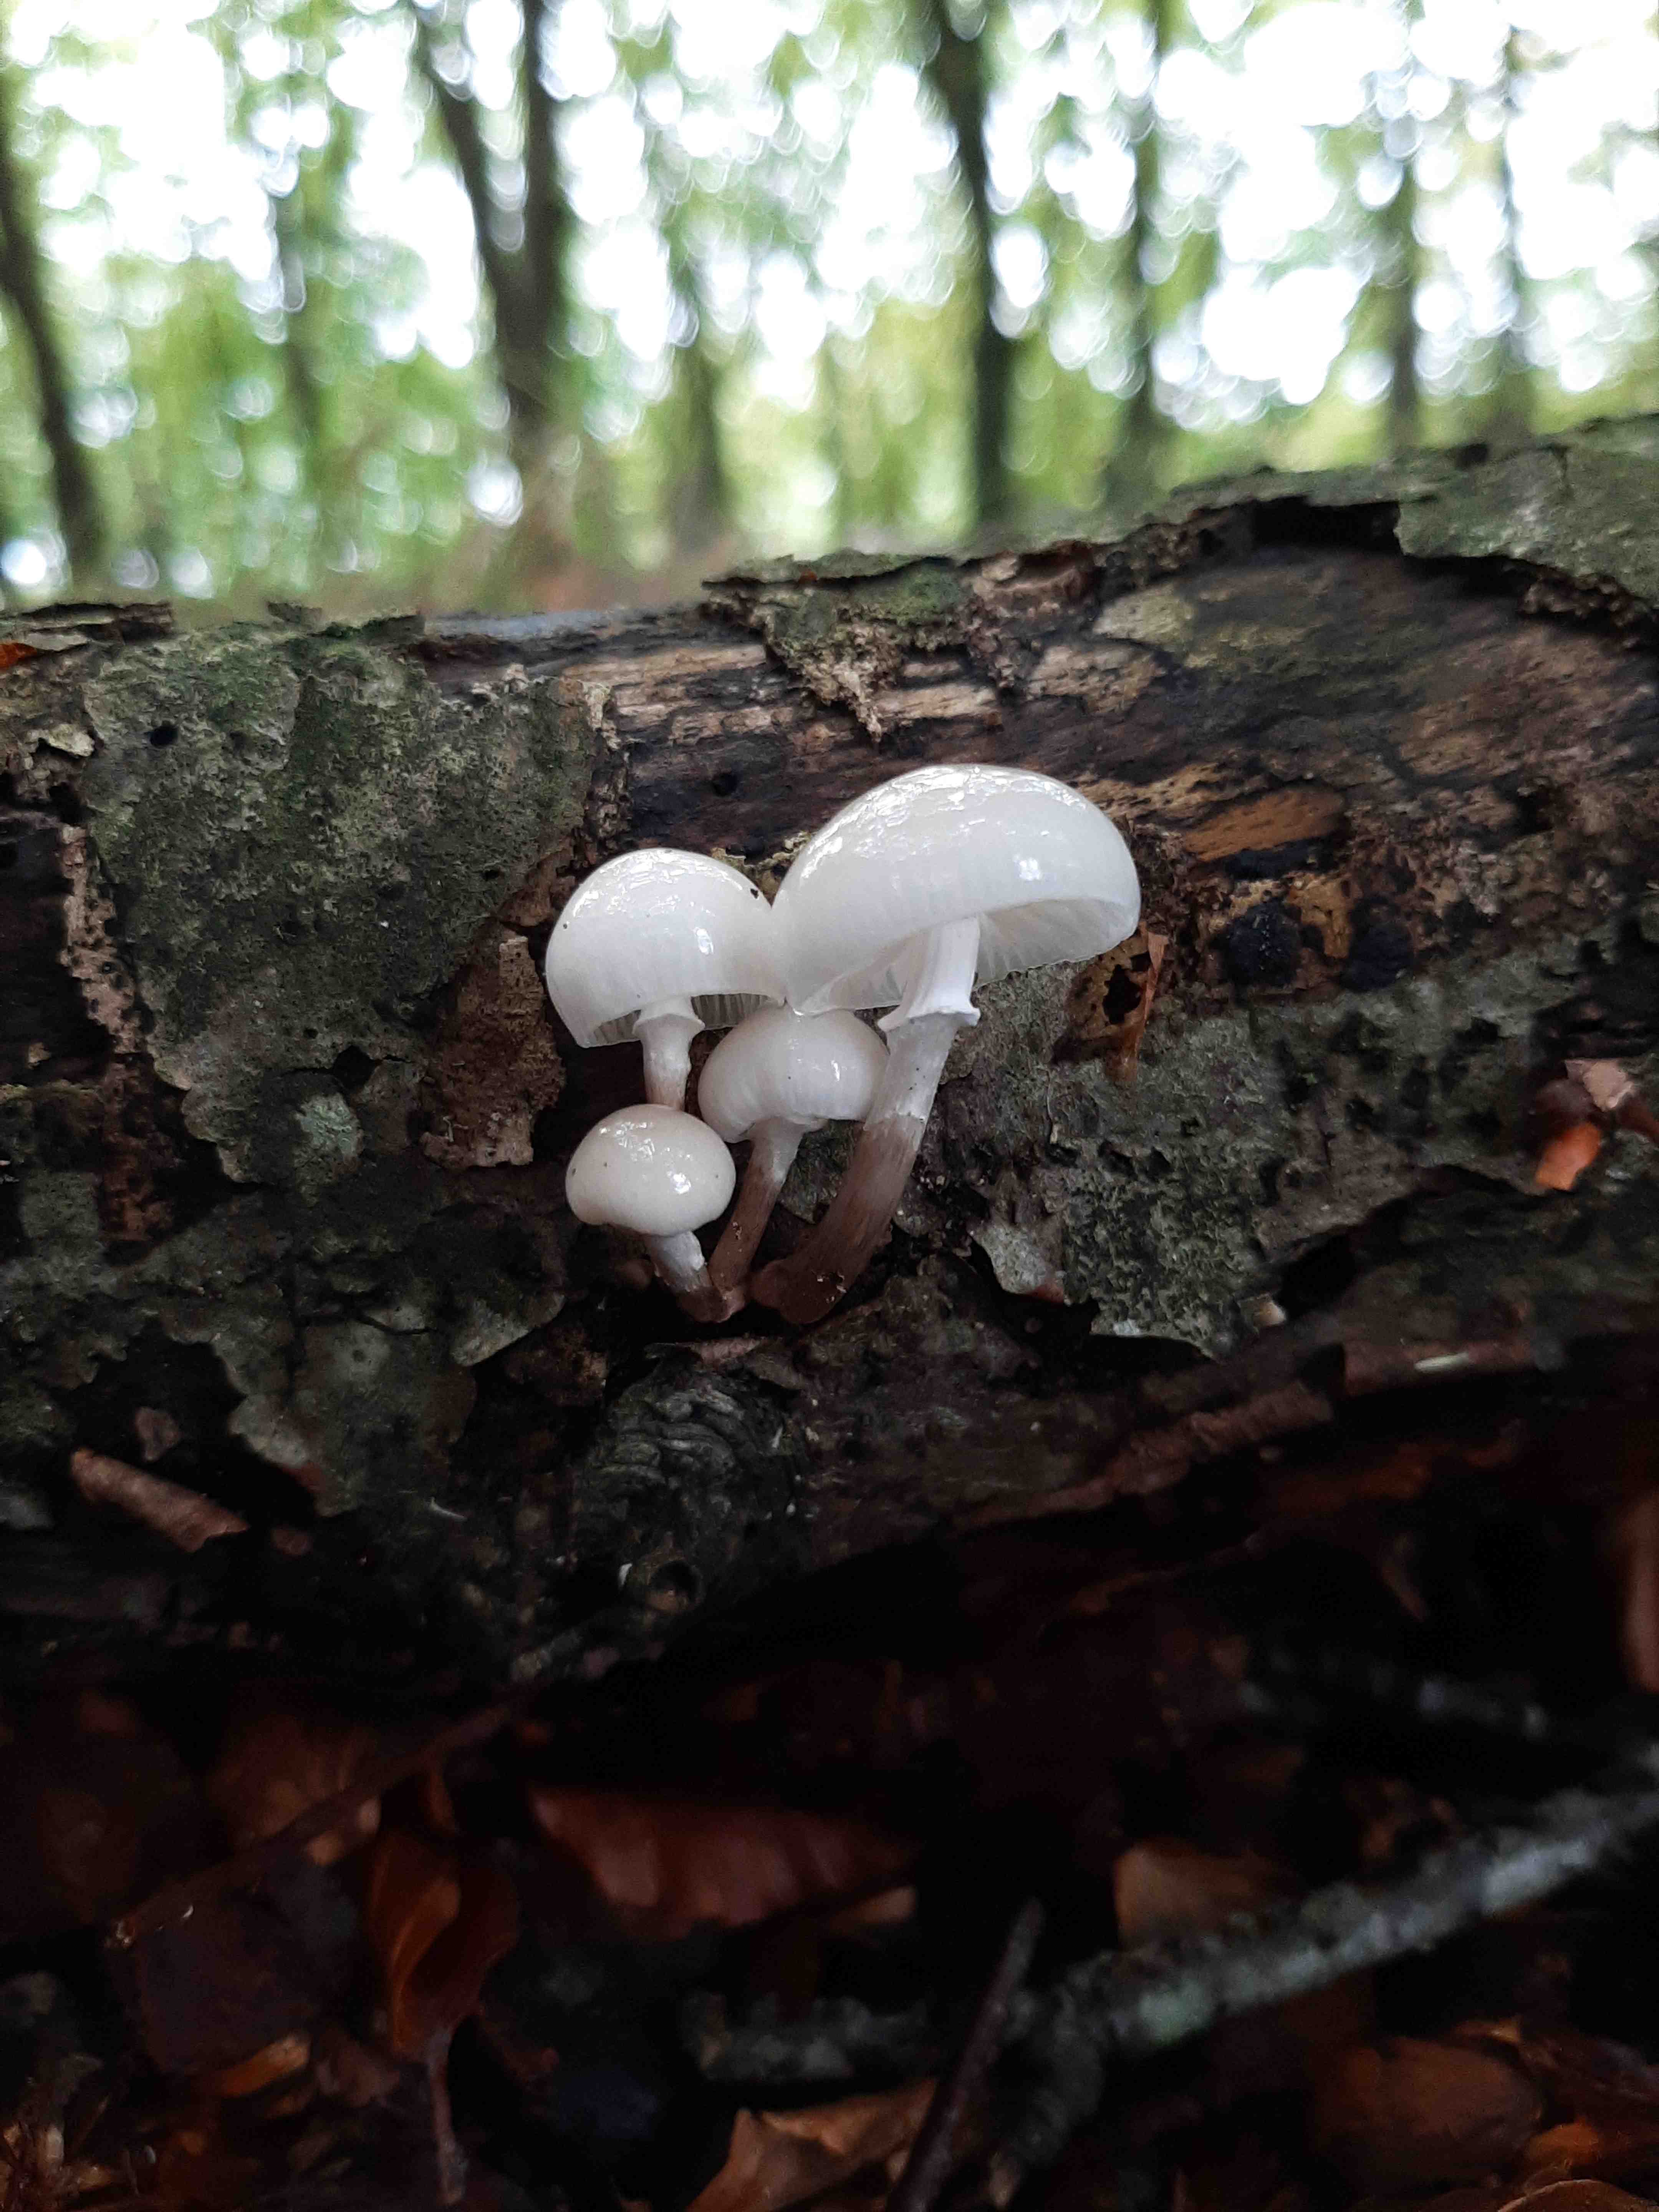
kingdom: Fungi
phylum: Basidiomycota
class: Agaricomycetes
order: Agaricales
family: Physalacriaceae
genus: Mucidula
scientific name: Mucidula mucida
